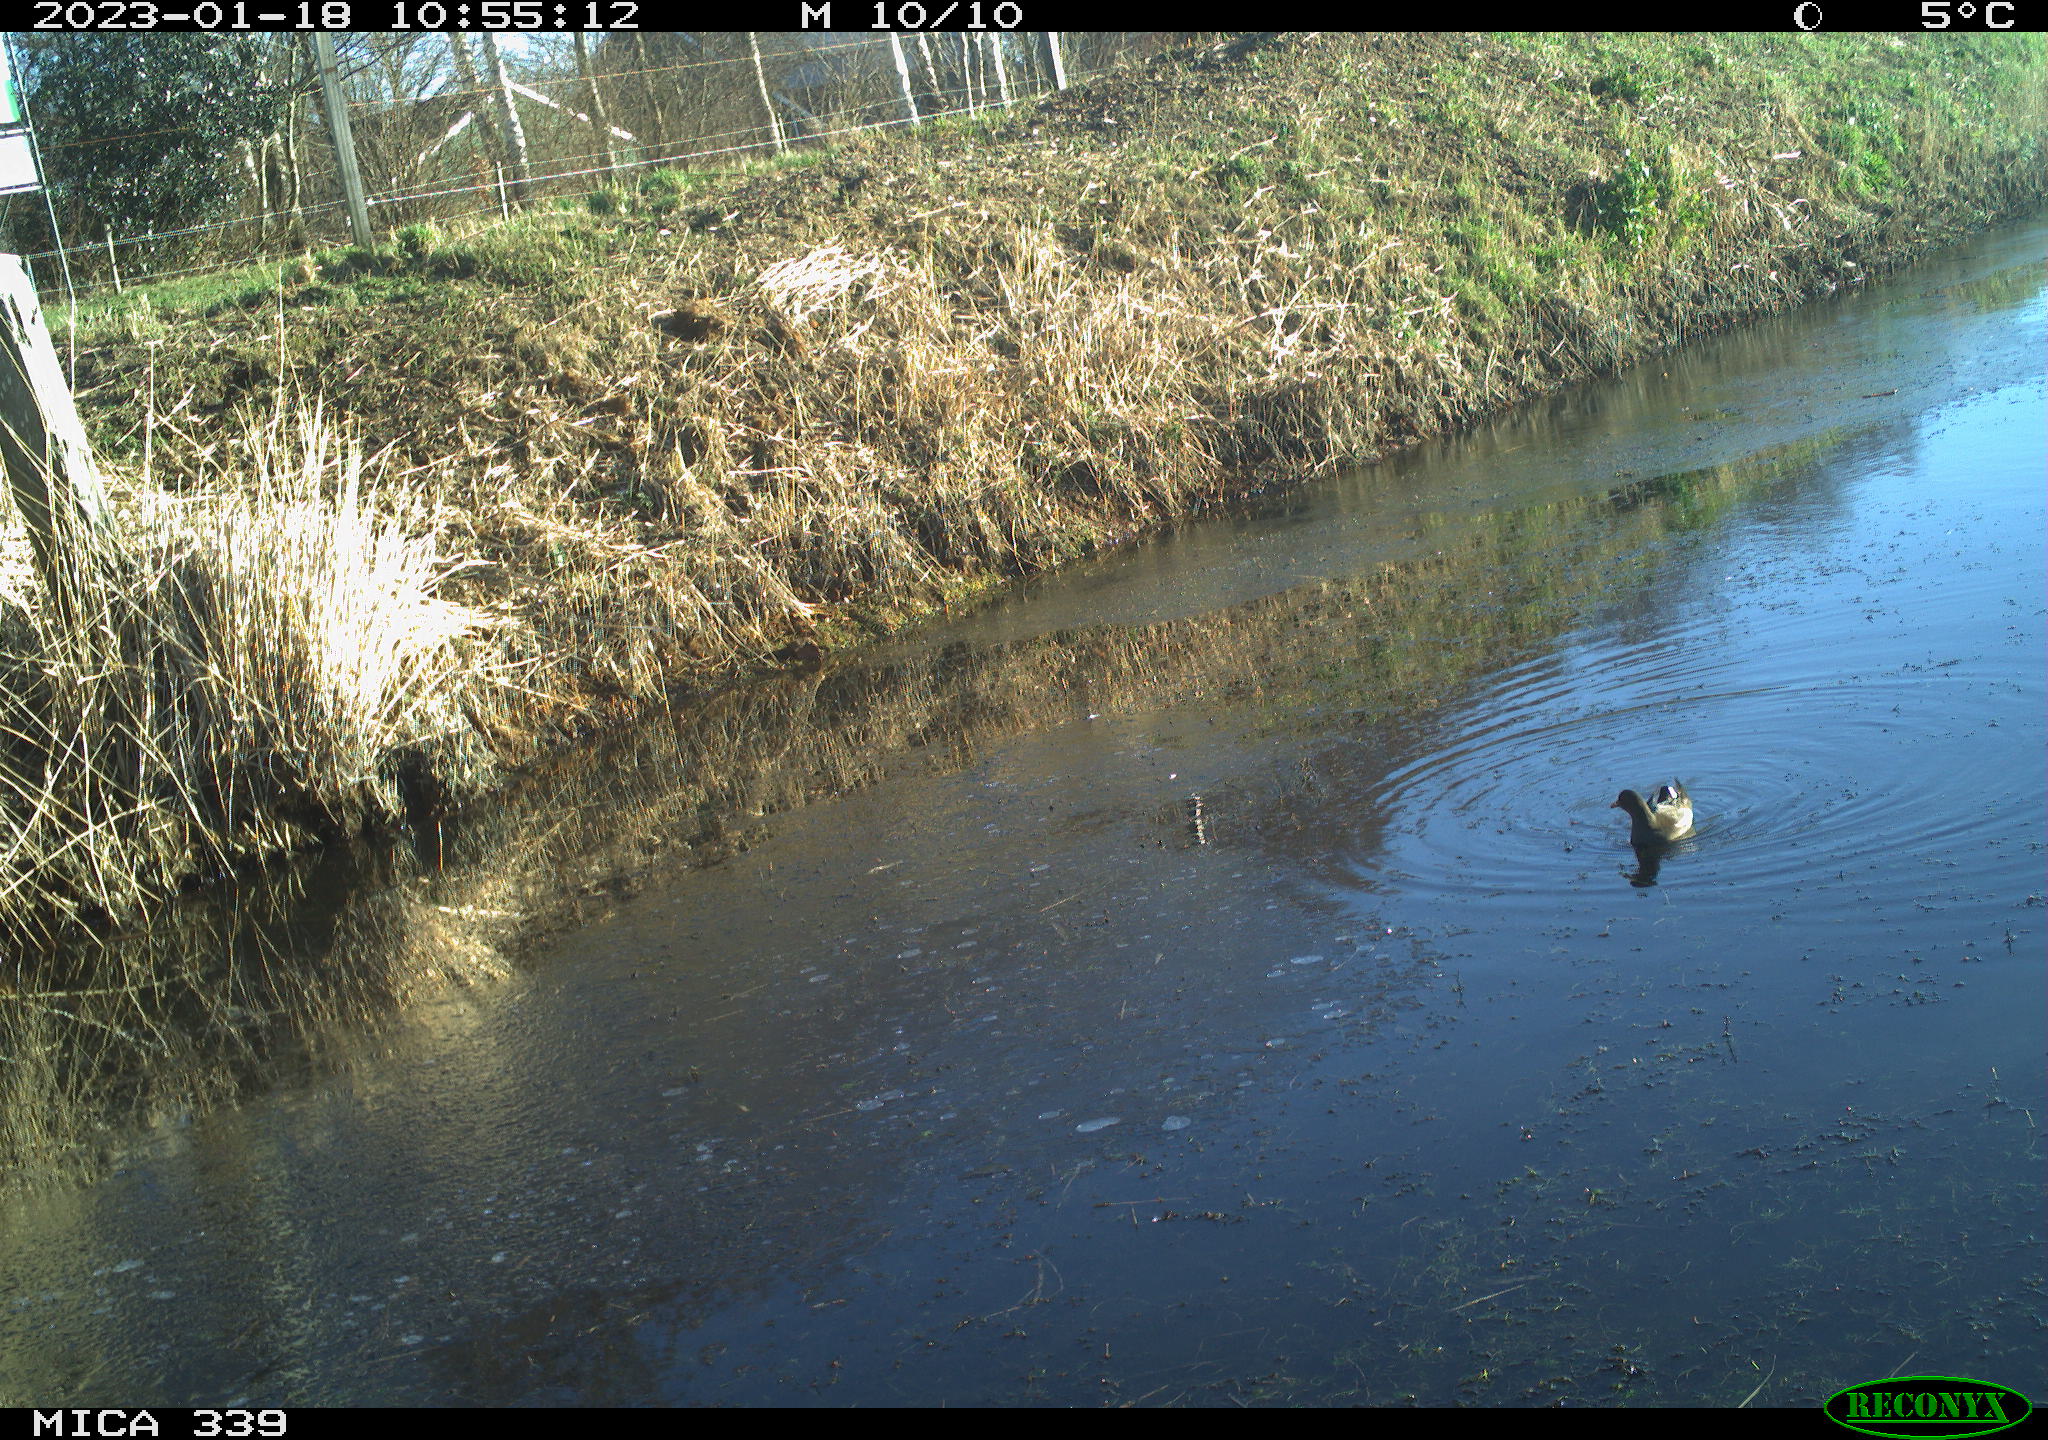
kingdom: Animalia
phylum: Chordata
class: Aves
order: Gruiformes
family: Rallidae
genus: Gallinula
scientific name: Gallinula chloropus
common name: Common moorhen
